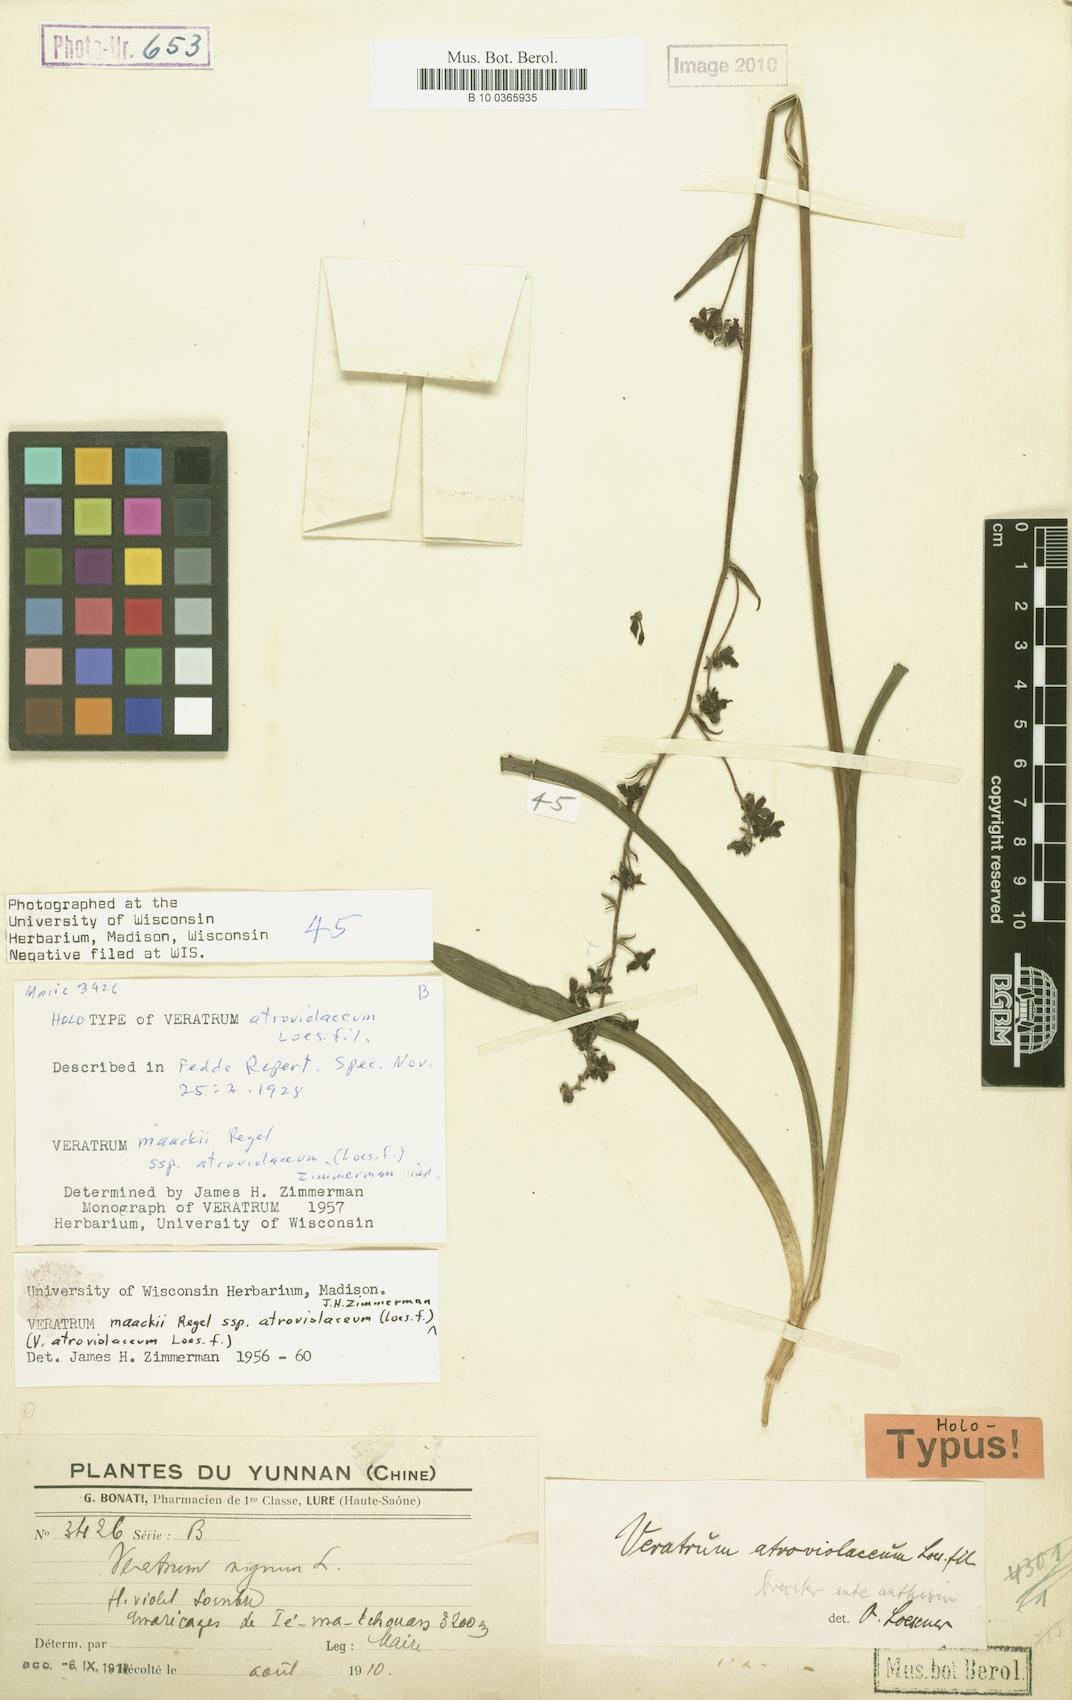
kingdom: Plantae
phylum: Tracheophyta
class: Liliopsida
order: Liliales
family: Melanthiaceae
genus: Veratrum
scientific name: Veratrum maackii
